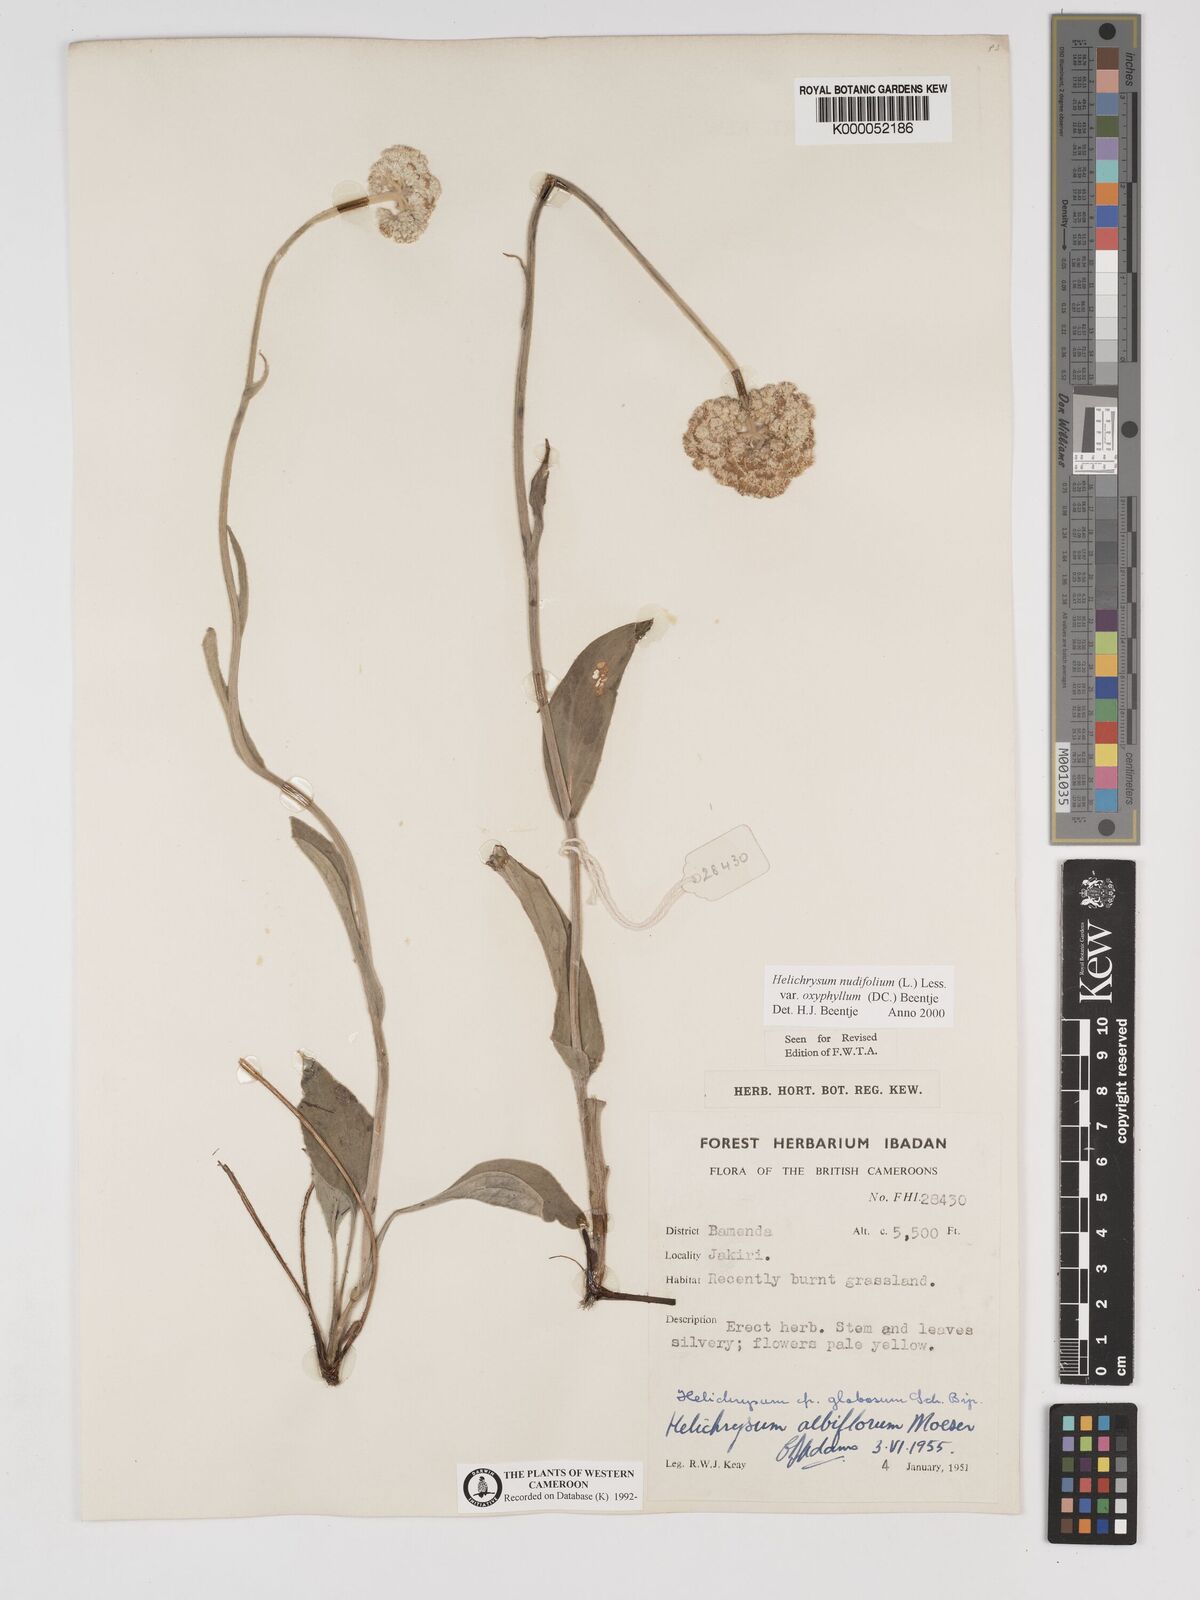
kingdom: Plantae
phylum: Tracheophyta
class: Magnoliopsida
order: Asterales
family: Asteraceae
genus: Helichrysum
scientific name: Helichrysum nudifolium
